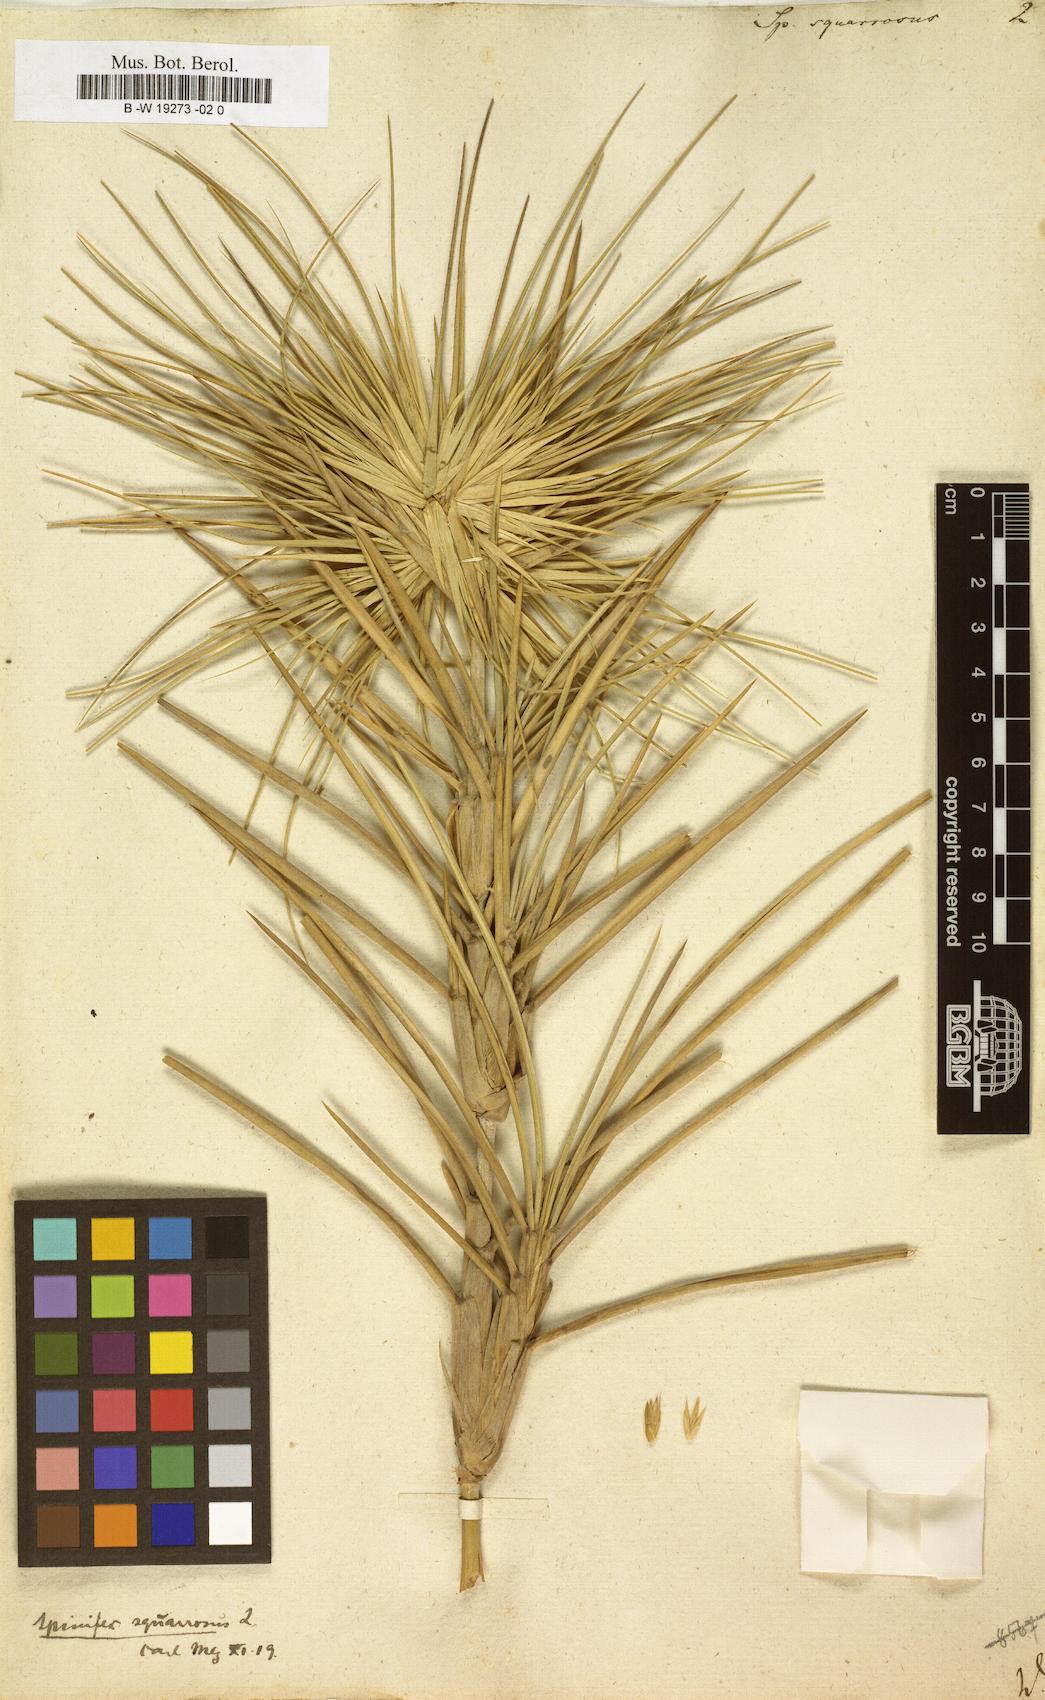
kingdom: Plantae
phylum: Tracheophyta
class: Liliopsida
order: Poales
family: Poaceae
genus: Spinifex
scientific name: Spinifex littoreus
